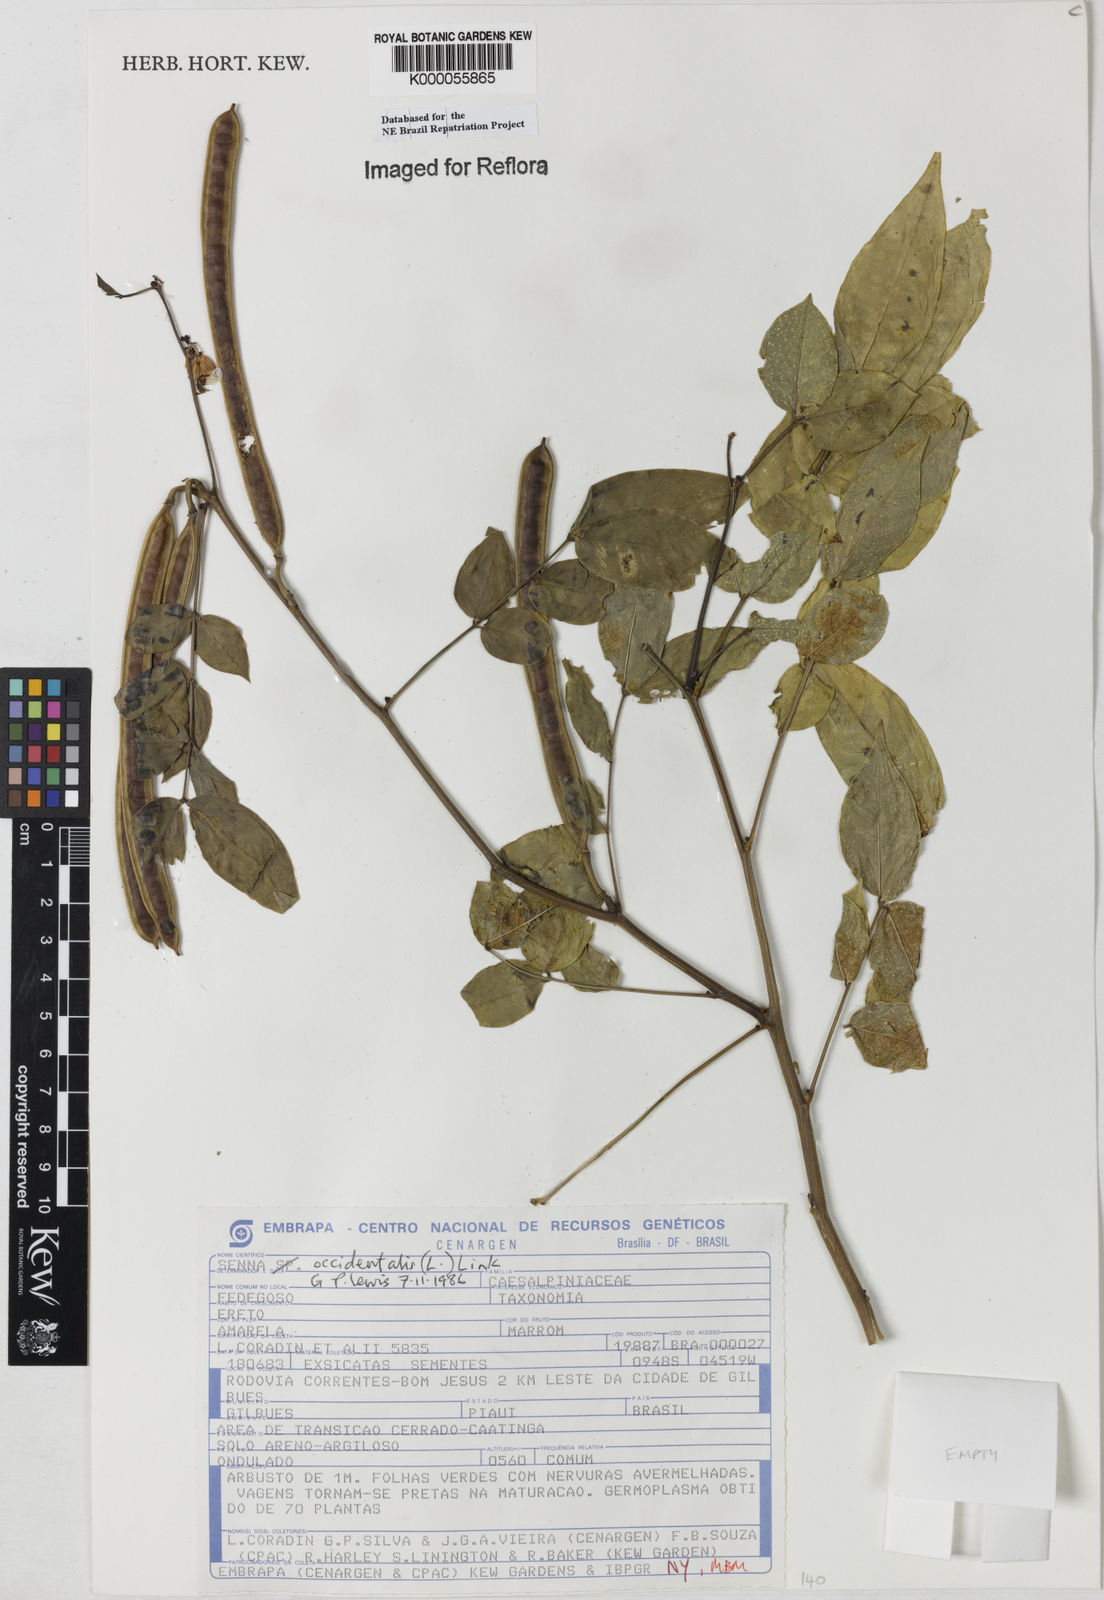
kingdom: Plantae
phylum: Tracheophyta
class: Magnoliopsida
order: Fabales
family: Fabaceae
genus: Senna
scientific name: Senna occidentalis
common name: Septicweed
